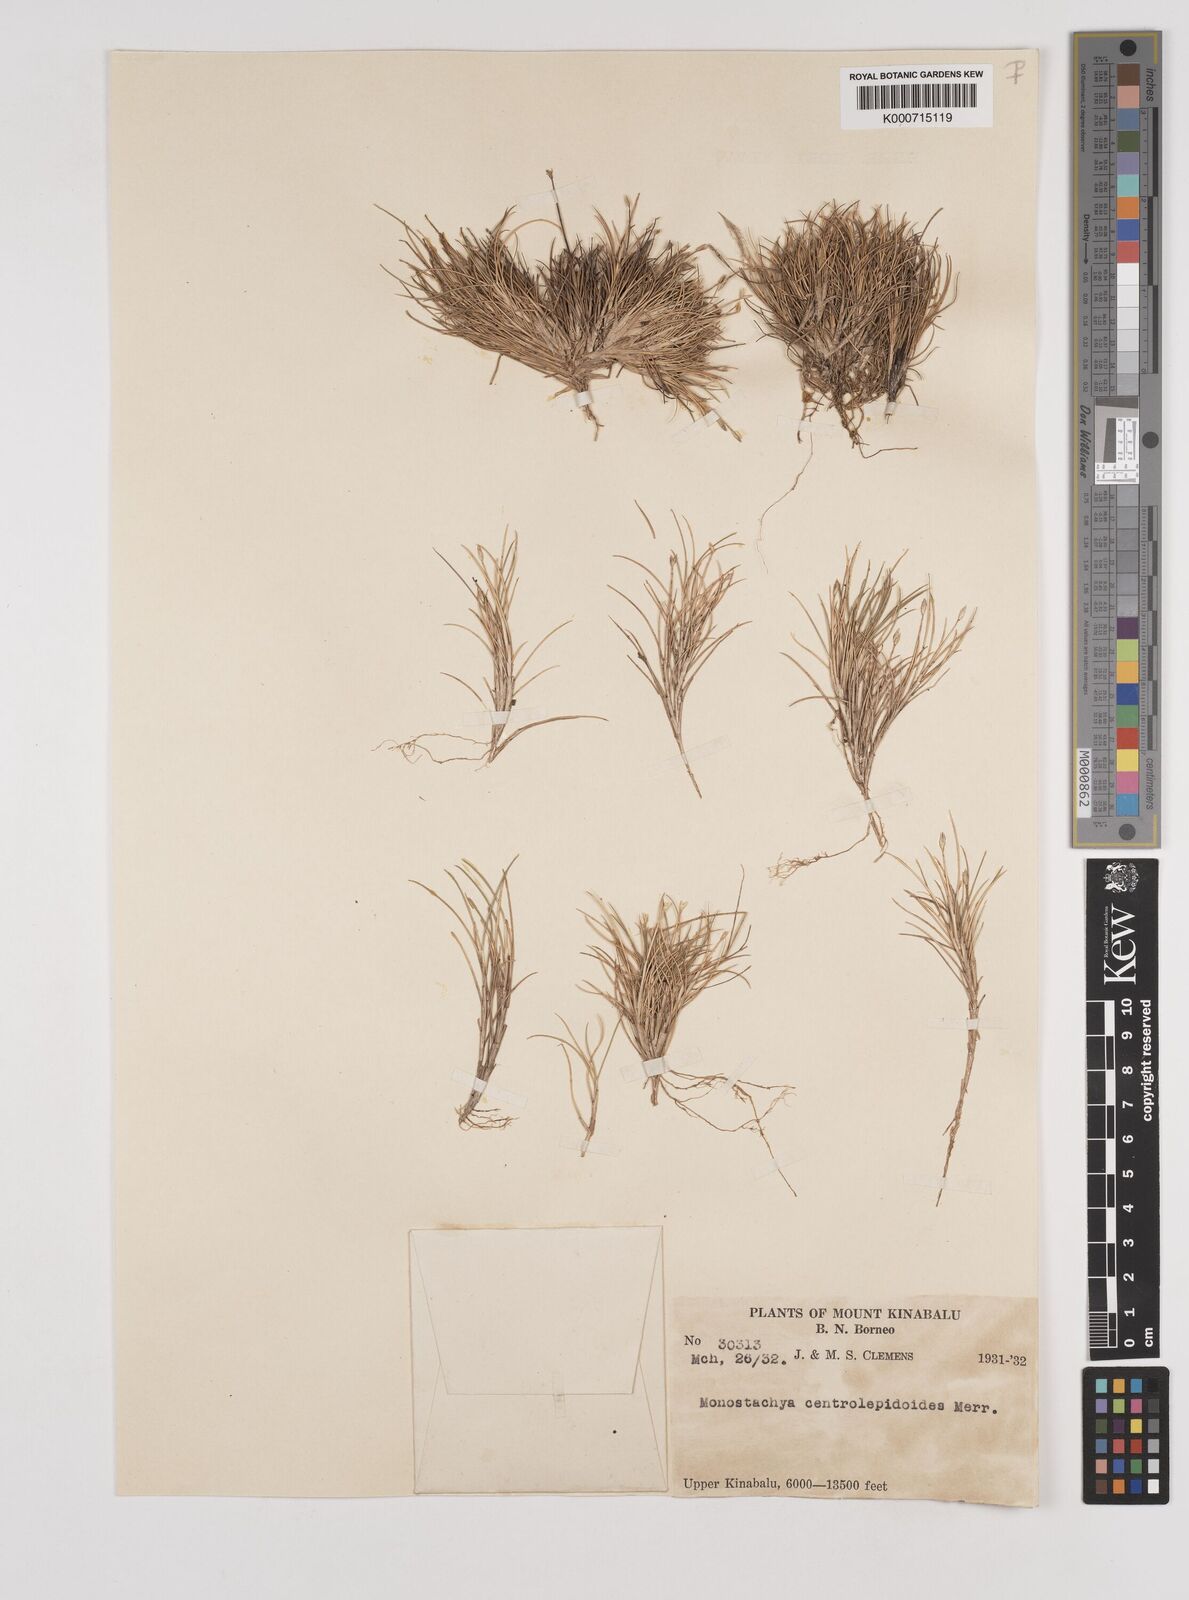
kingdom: Plantae
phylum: Tracheophyta
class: Liliopsida
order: Poales
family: Poaceae
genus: Rytidosperma
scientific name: Rytidosperma oreoboloides
